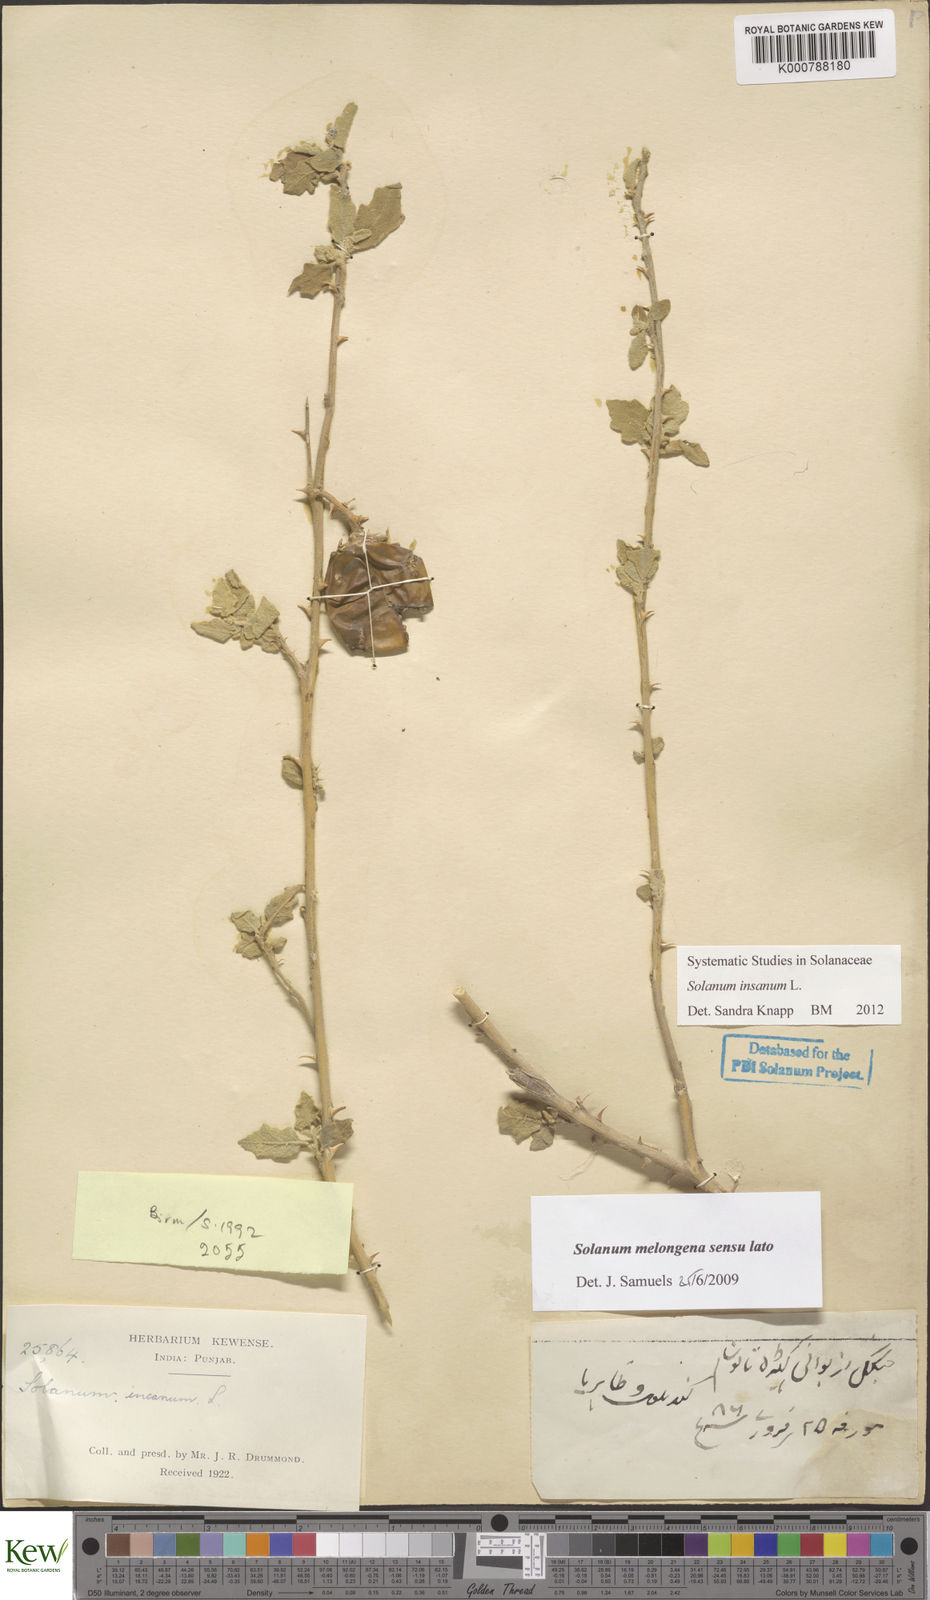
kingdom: Plantae
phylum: Tracheophyta
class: Magnoliopsida
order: Solanales
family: Solanaceae
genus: Solanum
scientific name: Solanum insanum
